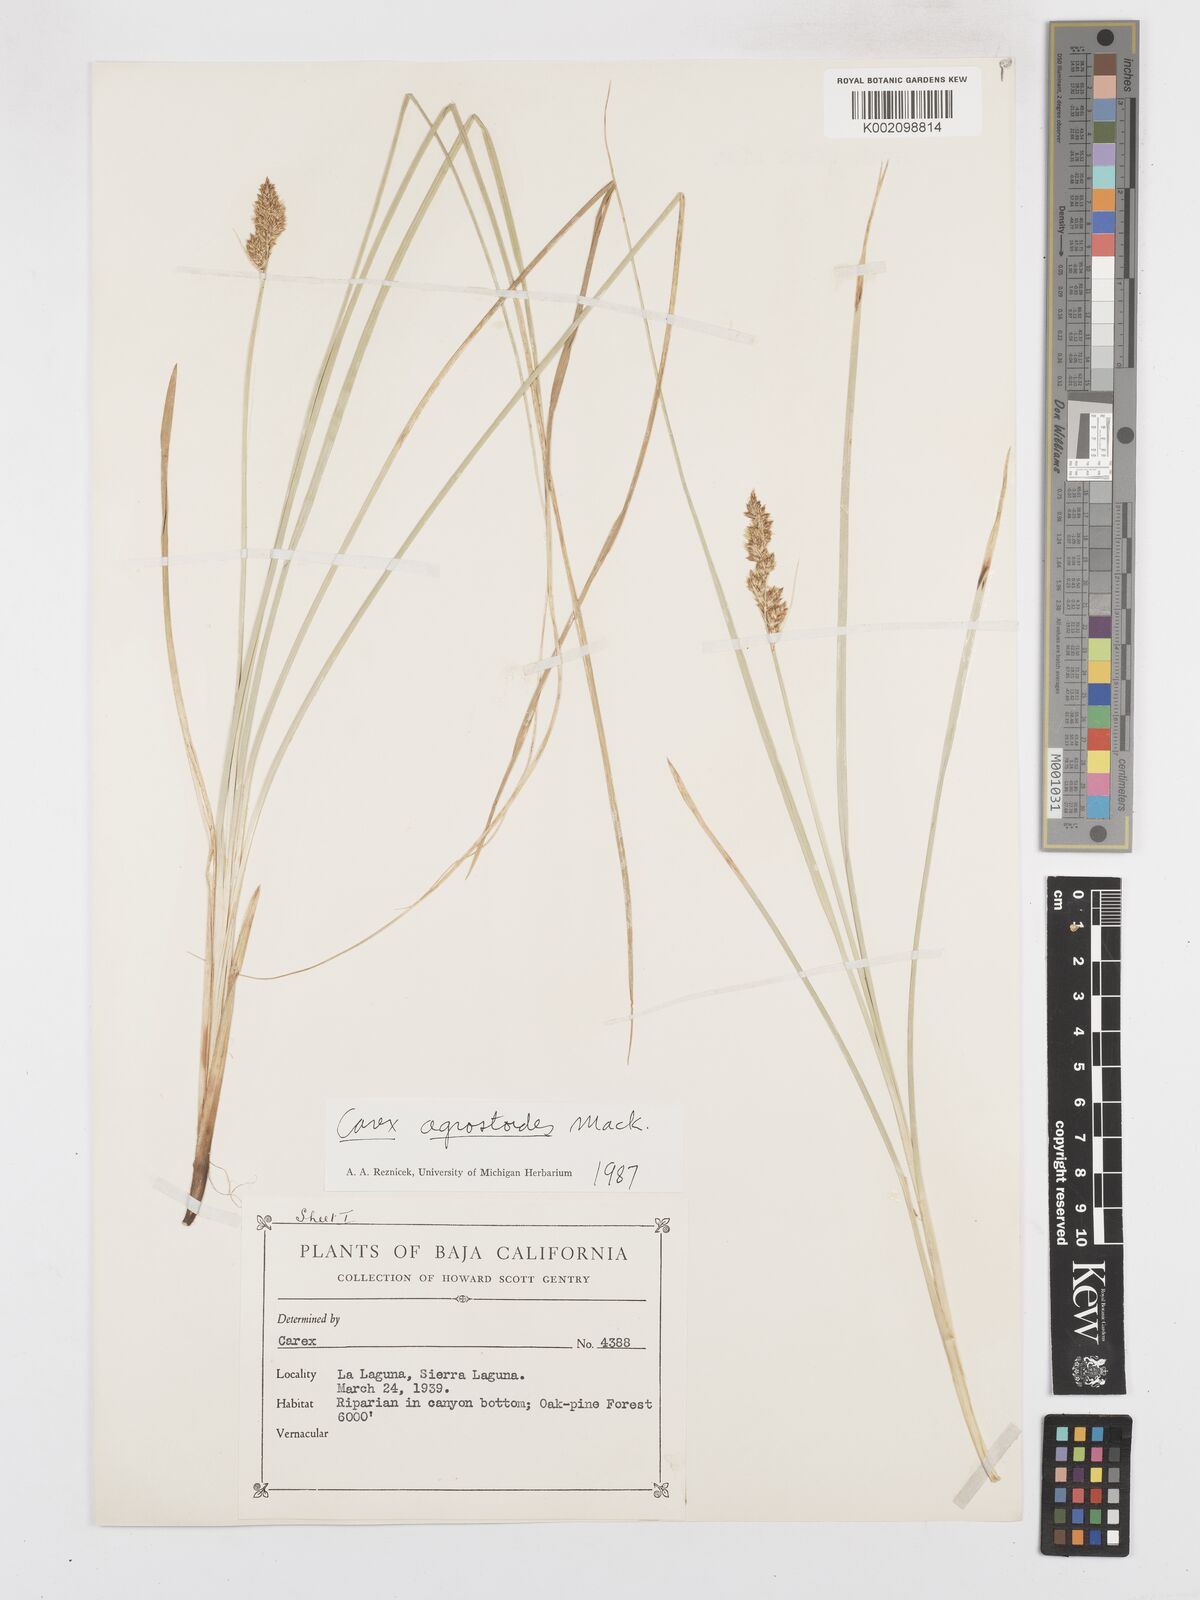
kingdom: Plantae
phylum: Tracheophyta
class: Liliopsida
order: Poales
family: Cyperaceae
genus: Carex
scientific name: Carex alma
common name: Alma sedge
